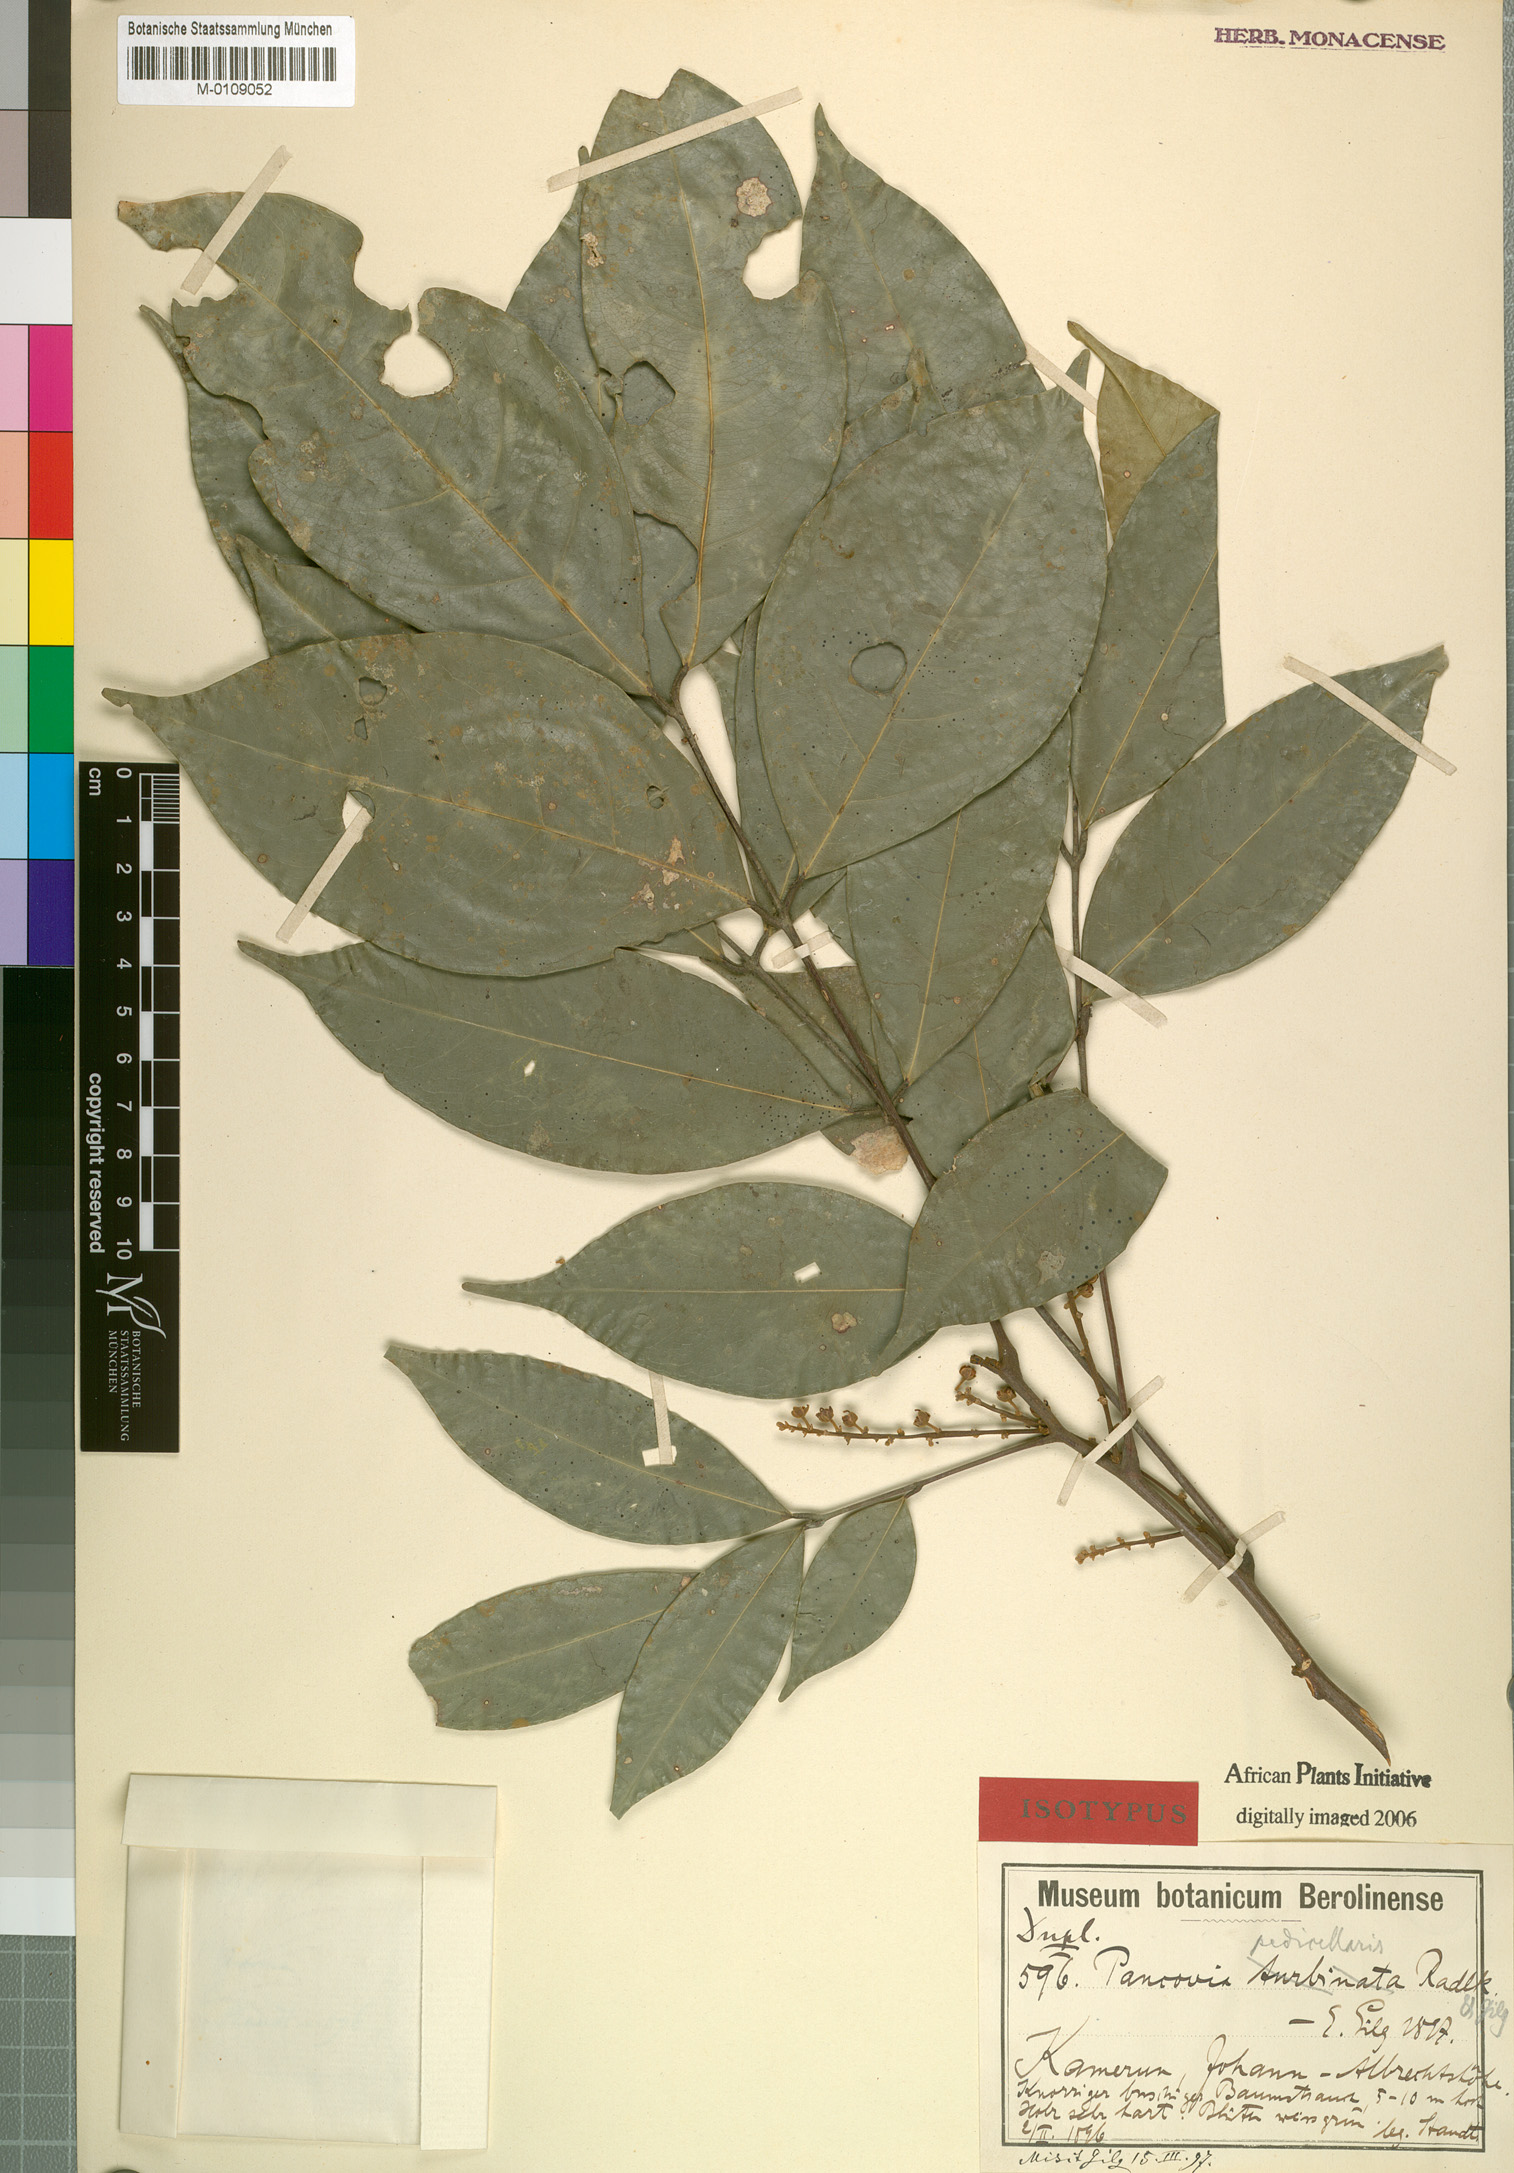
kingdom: Plantae
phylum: Tracheophyta
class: Magnoliopsida
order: Sapindales
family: Sapindaceae
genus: Pancovia
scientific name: Pancovia turbinata
